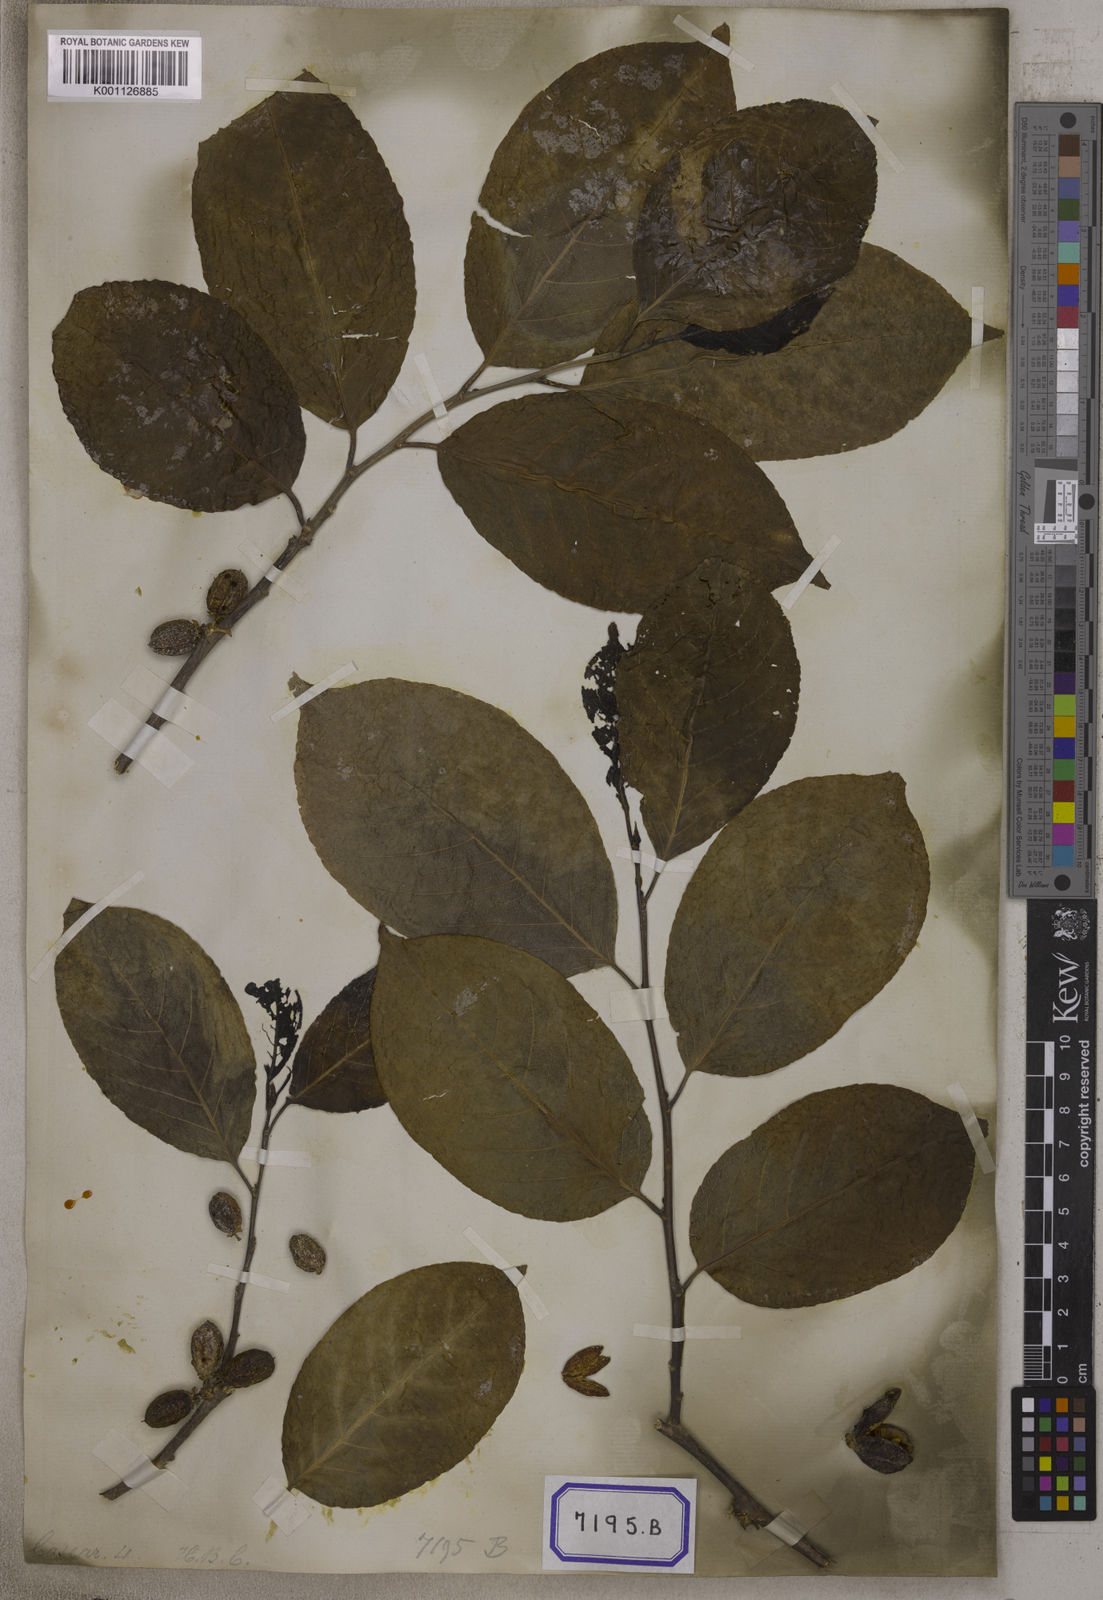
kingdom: Plantae
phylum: Tracheophyta
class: Magnoliopsida
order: Malpighiales
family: Salicaceae
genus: Casearia
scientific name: Casearia graveolens
